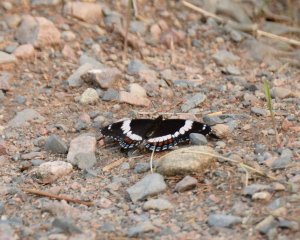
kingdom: Animalia
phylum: Arthropoda
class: Insecta
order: Lepidoptera
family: Nymphalidae
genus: Limenitis
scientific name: Limenitis arthemis
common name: Red-spotted Admiral
